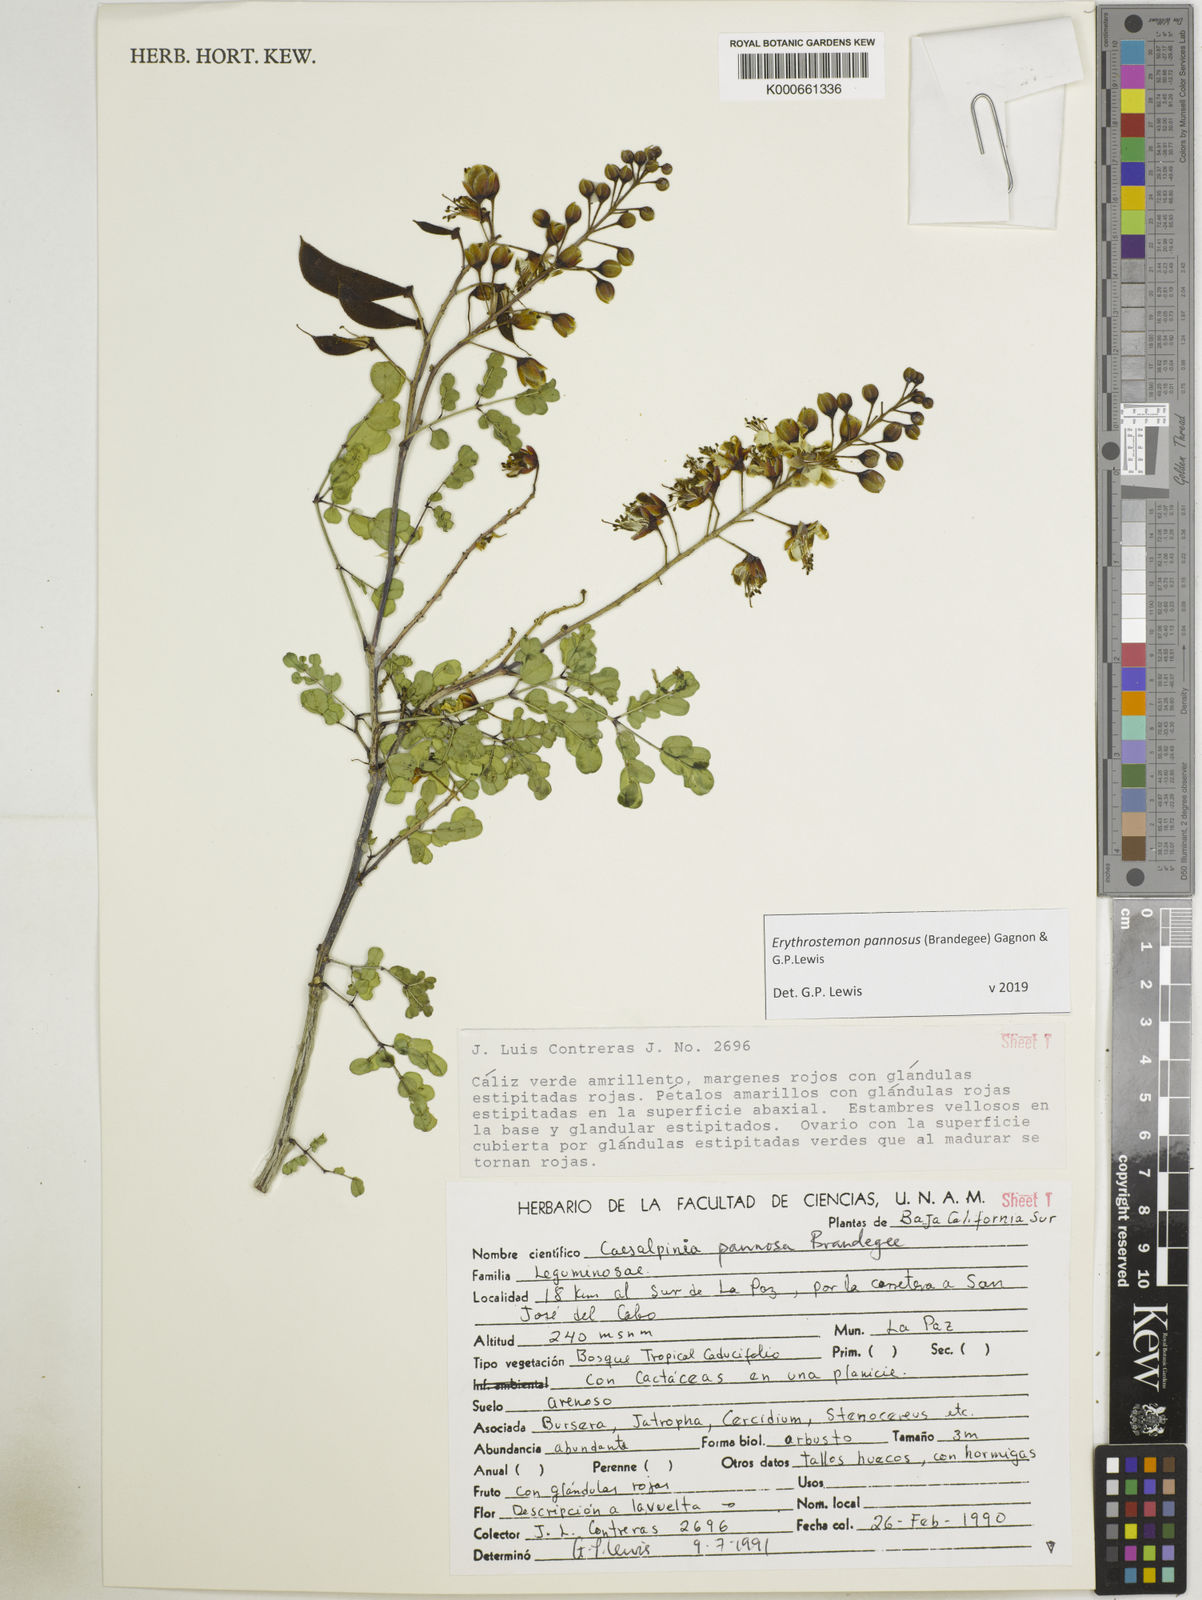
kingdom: Plantae
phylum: Tracheophyta
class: Magnoliopsida
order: Fabales
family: Fabaceae
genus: Erythrostemon
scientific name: Erythrostemon pannosus
